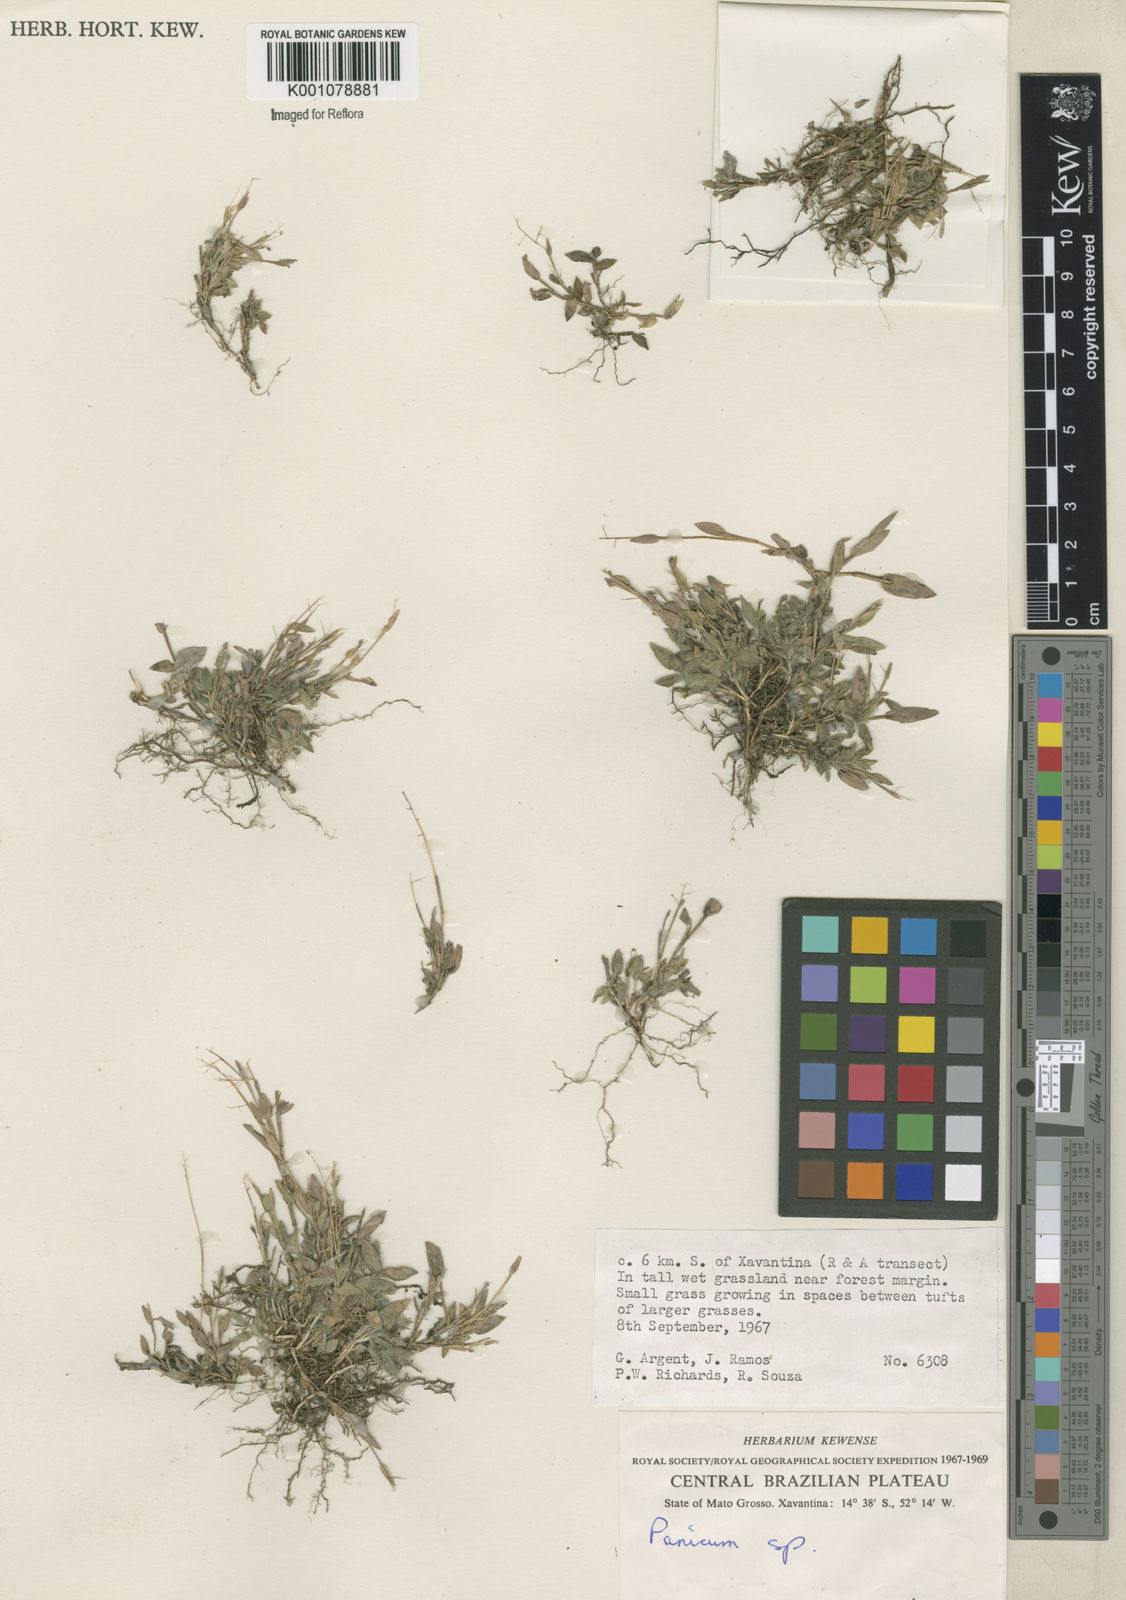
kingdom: Plantae
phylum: Tracheophyta
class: Liliopsida
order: Poales
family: Poaceae
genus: Trichanthecium
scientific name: Trichanthecium parvifolium
